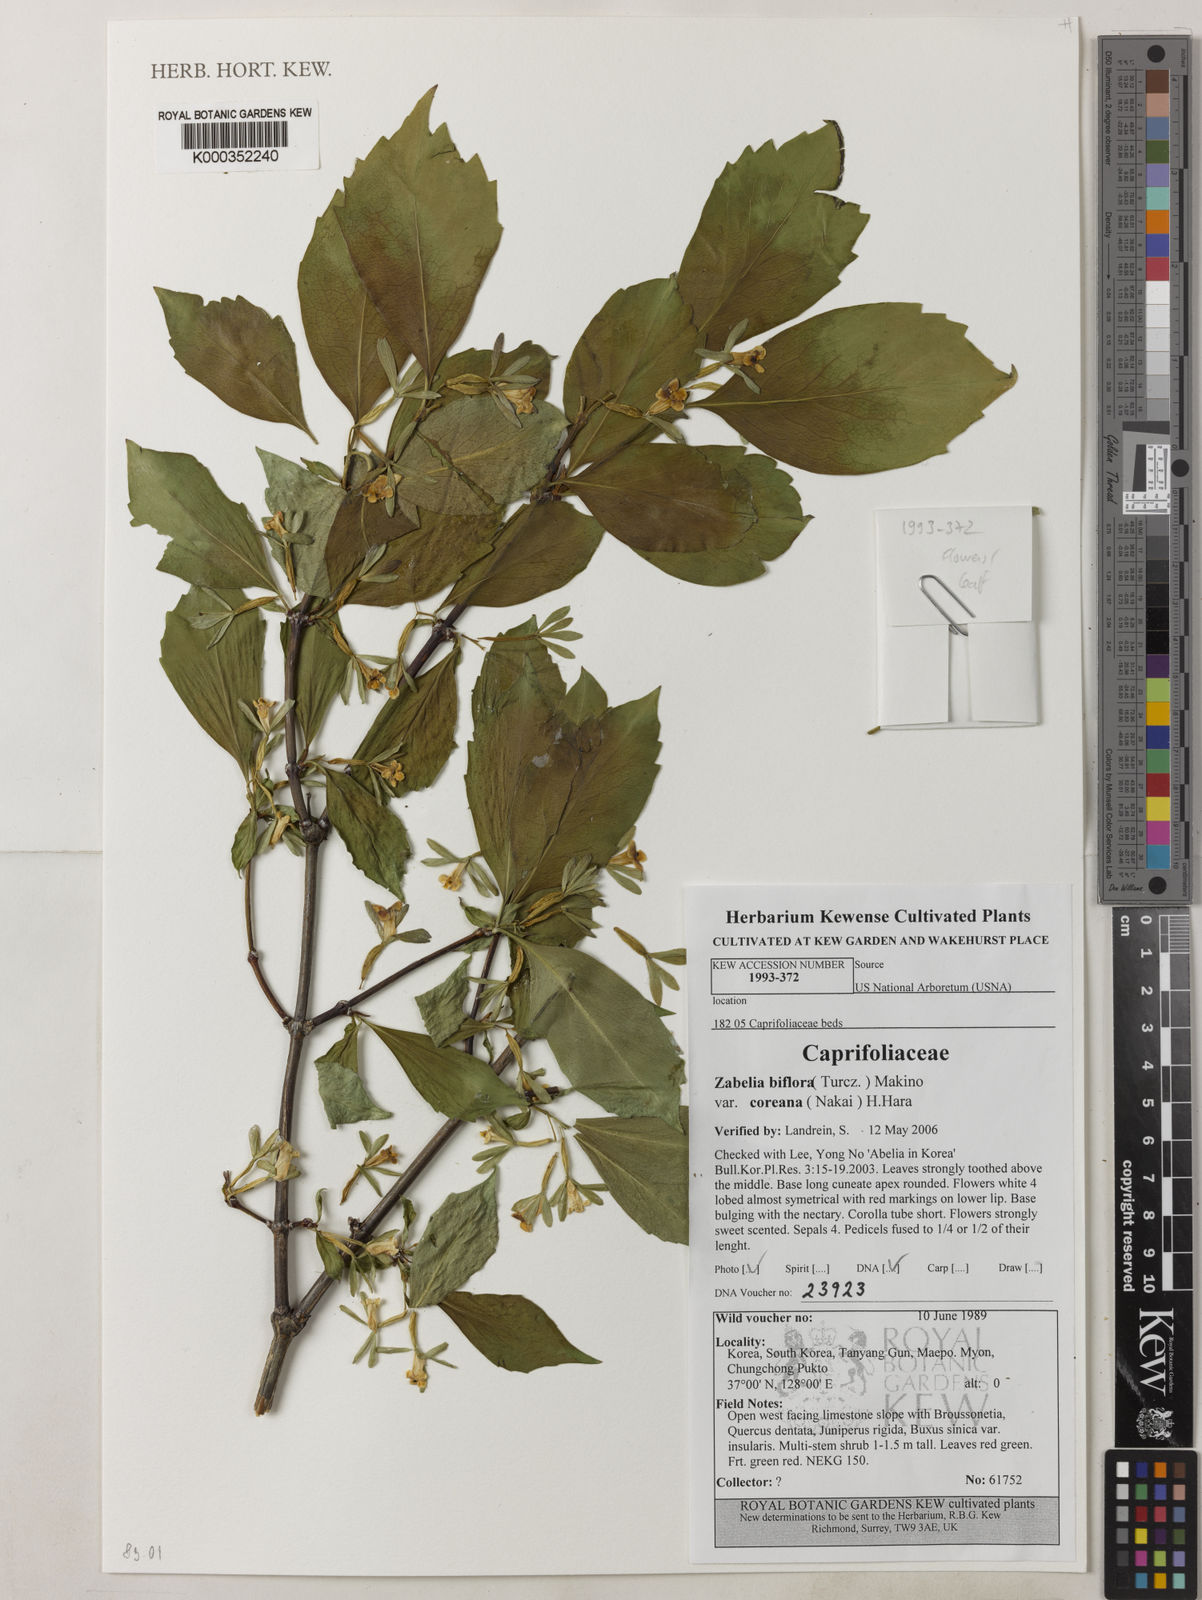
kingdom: Plantae
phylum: Tracheophyta
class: Magnoliopsida
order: Dipsacales
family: Caprifoliaceae
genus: Zabelia
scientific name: Zabelia biflora
